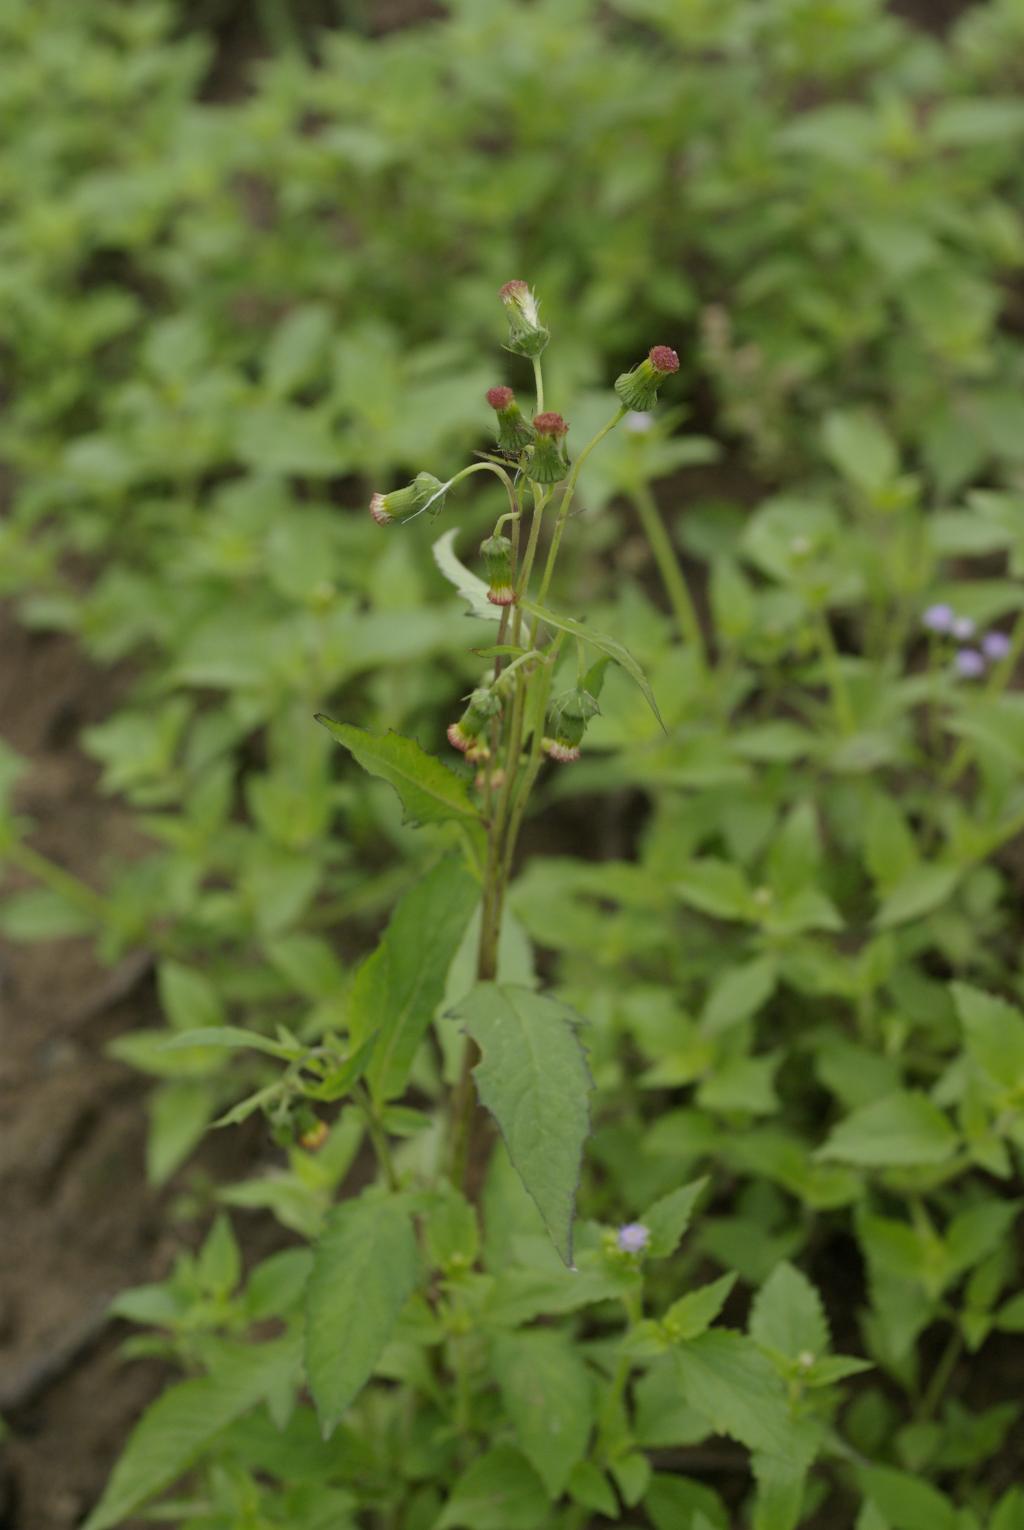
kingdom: Plantae
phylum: Tracheophyta
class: Magnoliopsida
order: Asterales
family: Asteraceae
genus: Crassocephalum
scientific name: Crassocephalum crepidioides
